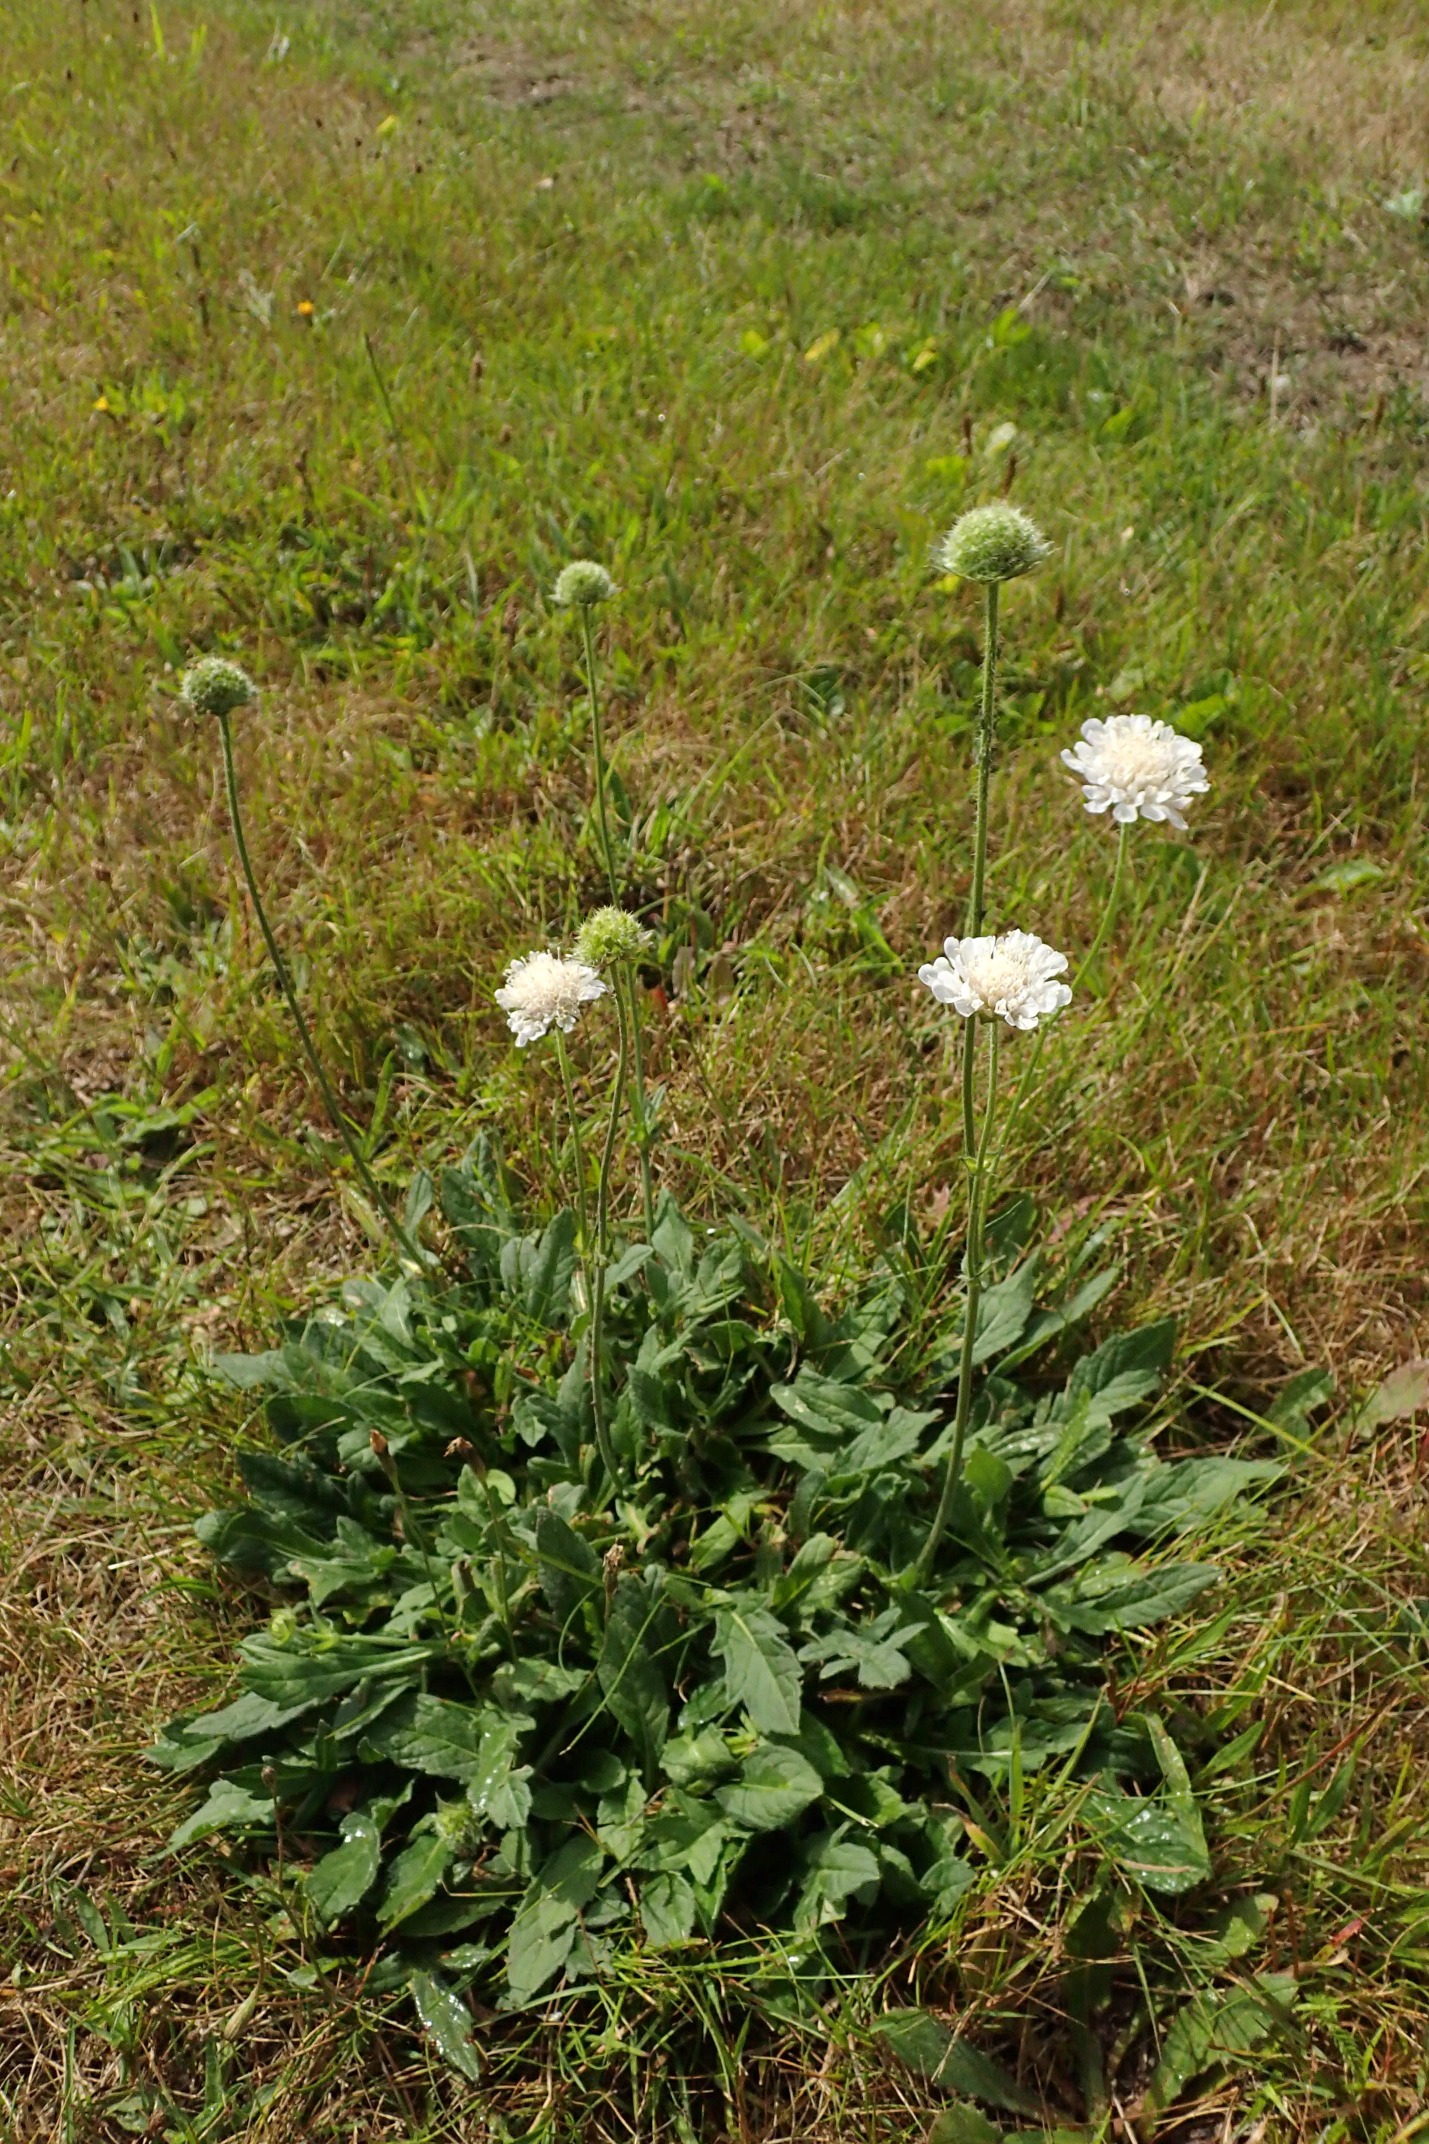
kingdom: Plantae
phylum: Tracheophyta
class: Magnoliopsida
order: Dipsacales
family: Caprifoliaceae
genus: Knautia
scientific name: Knautia arvensis
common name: Blåhat
